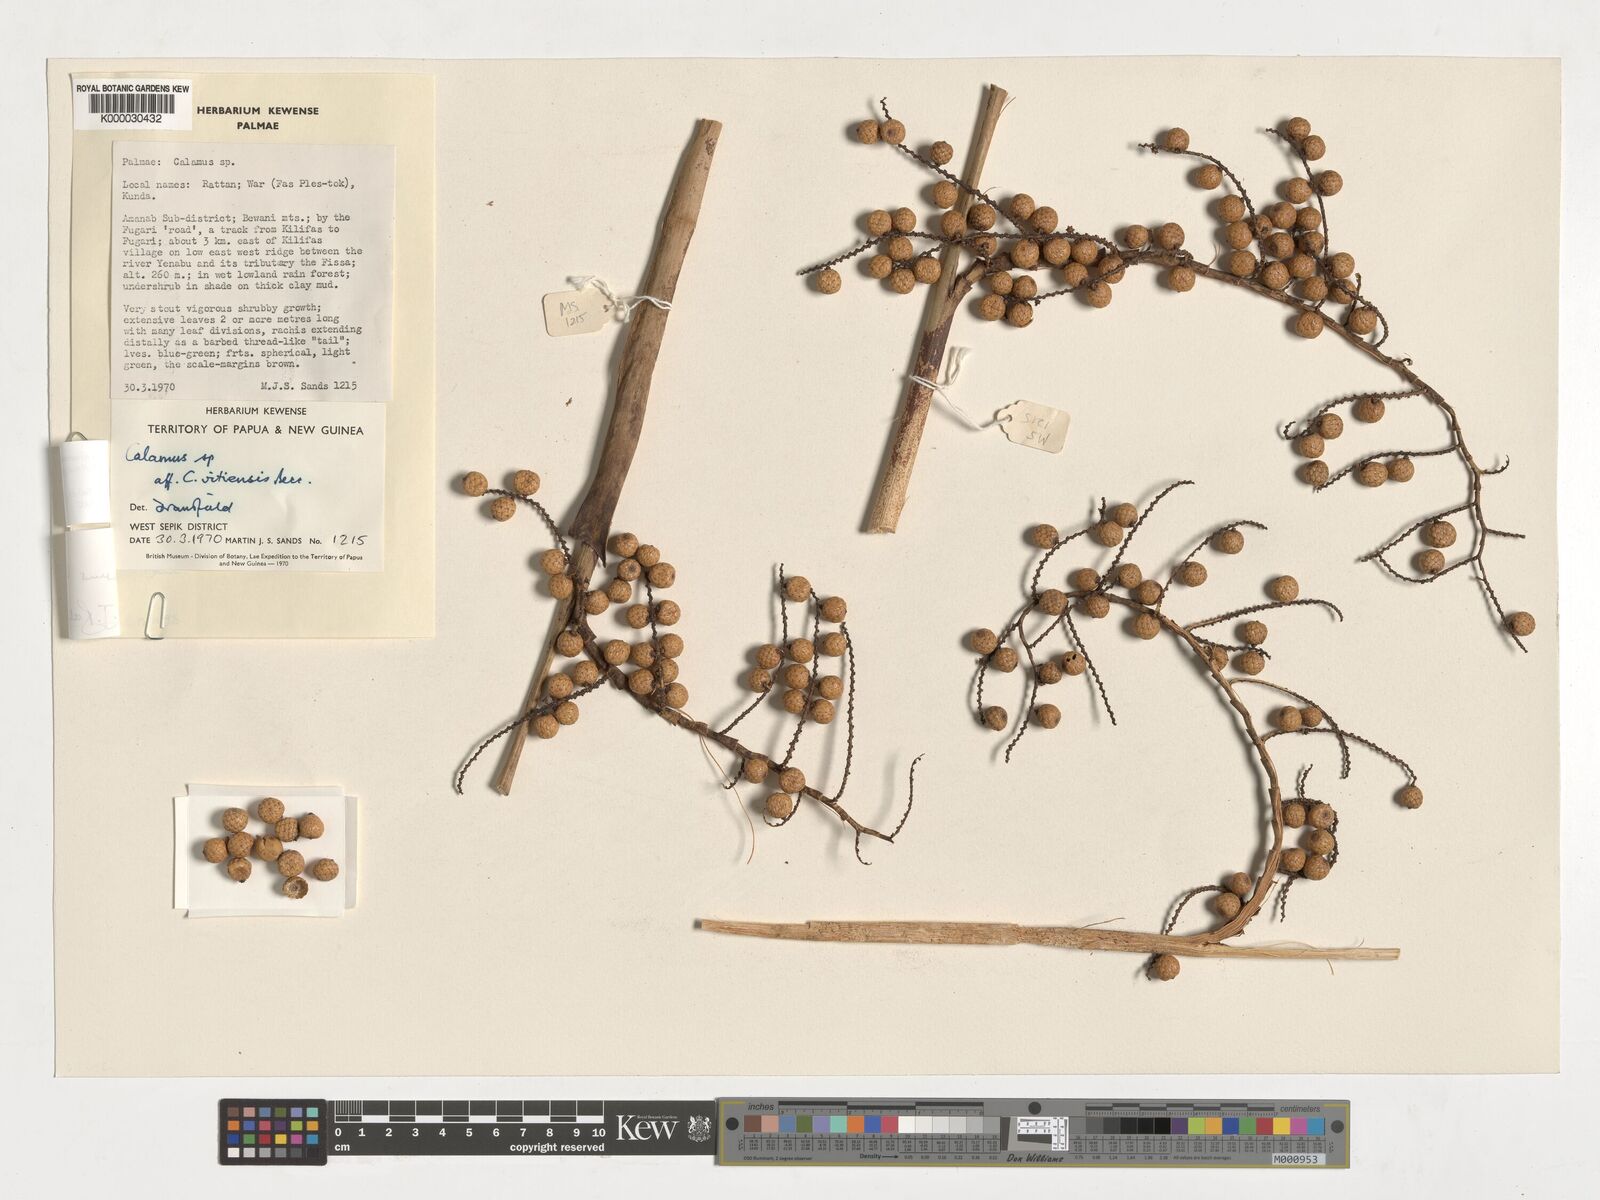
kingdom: Plantae
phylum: Tracheophyta
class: Liliopsida
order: Arecales
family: Arecaceae
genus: Calamus
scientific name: Calamus aruensis
